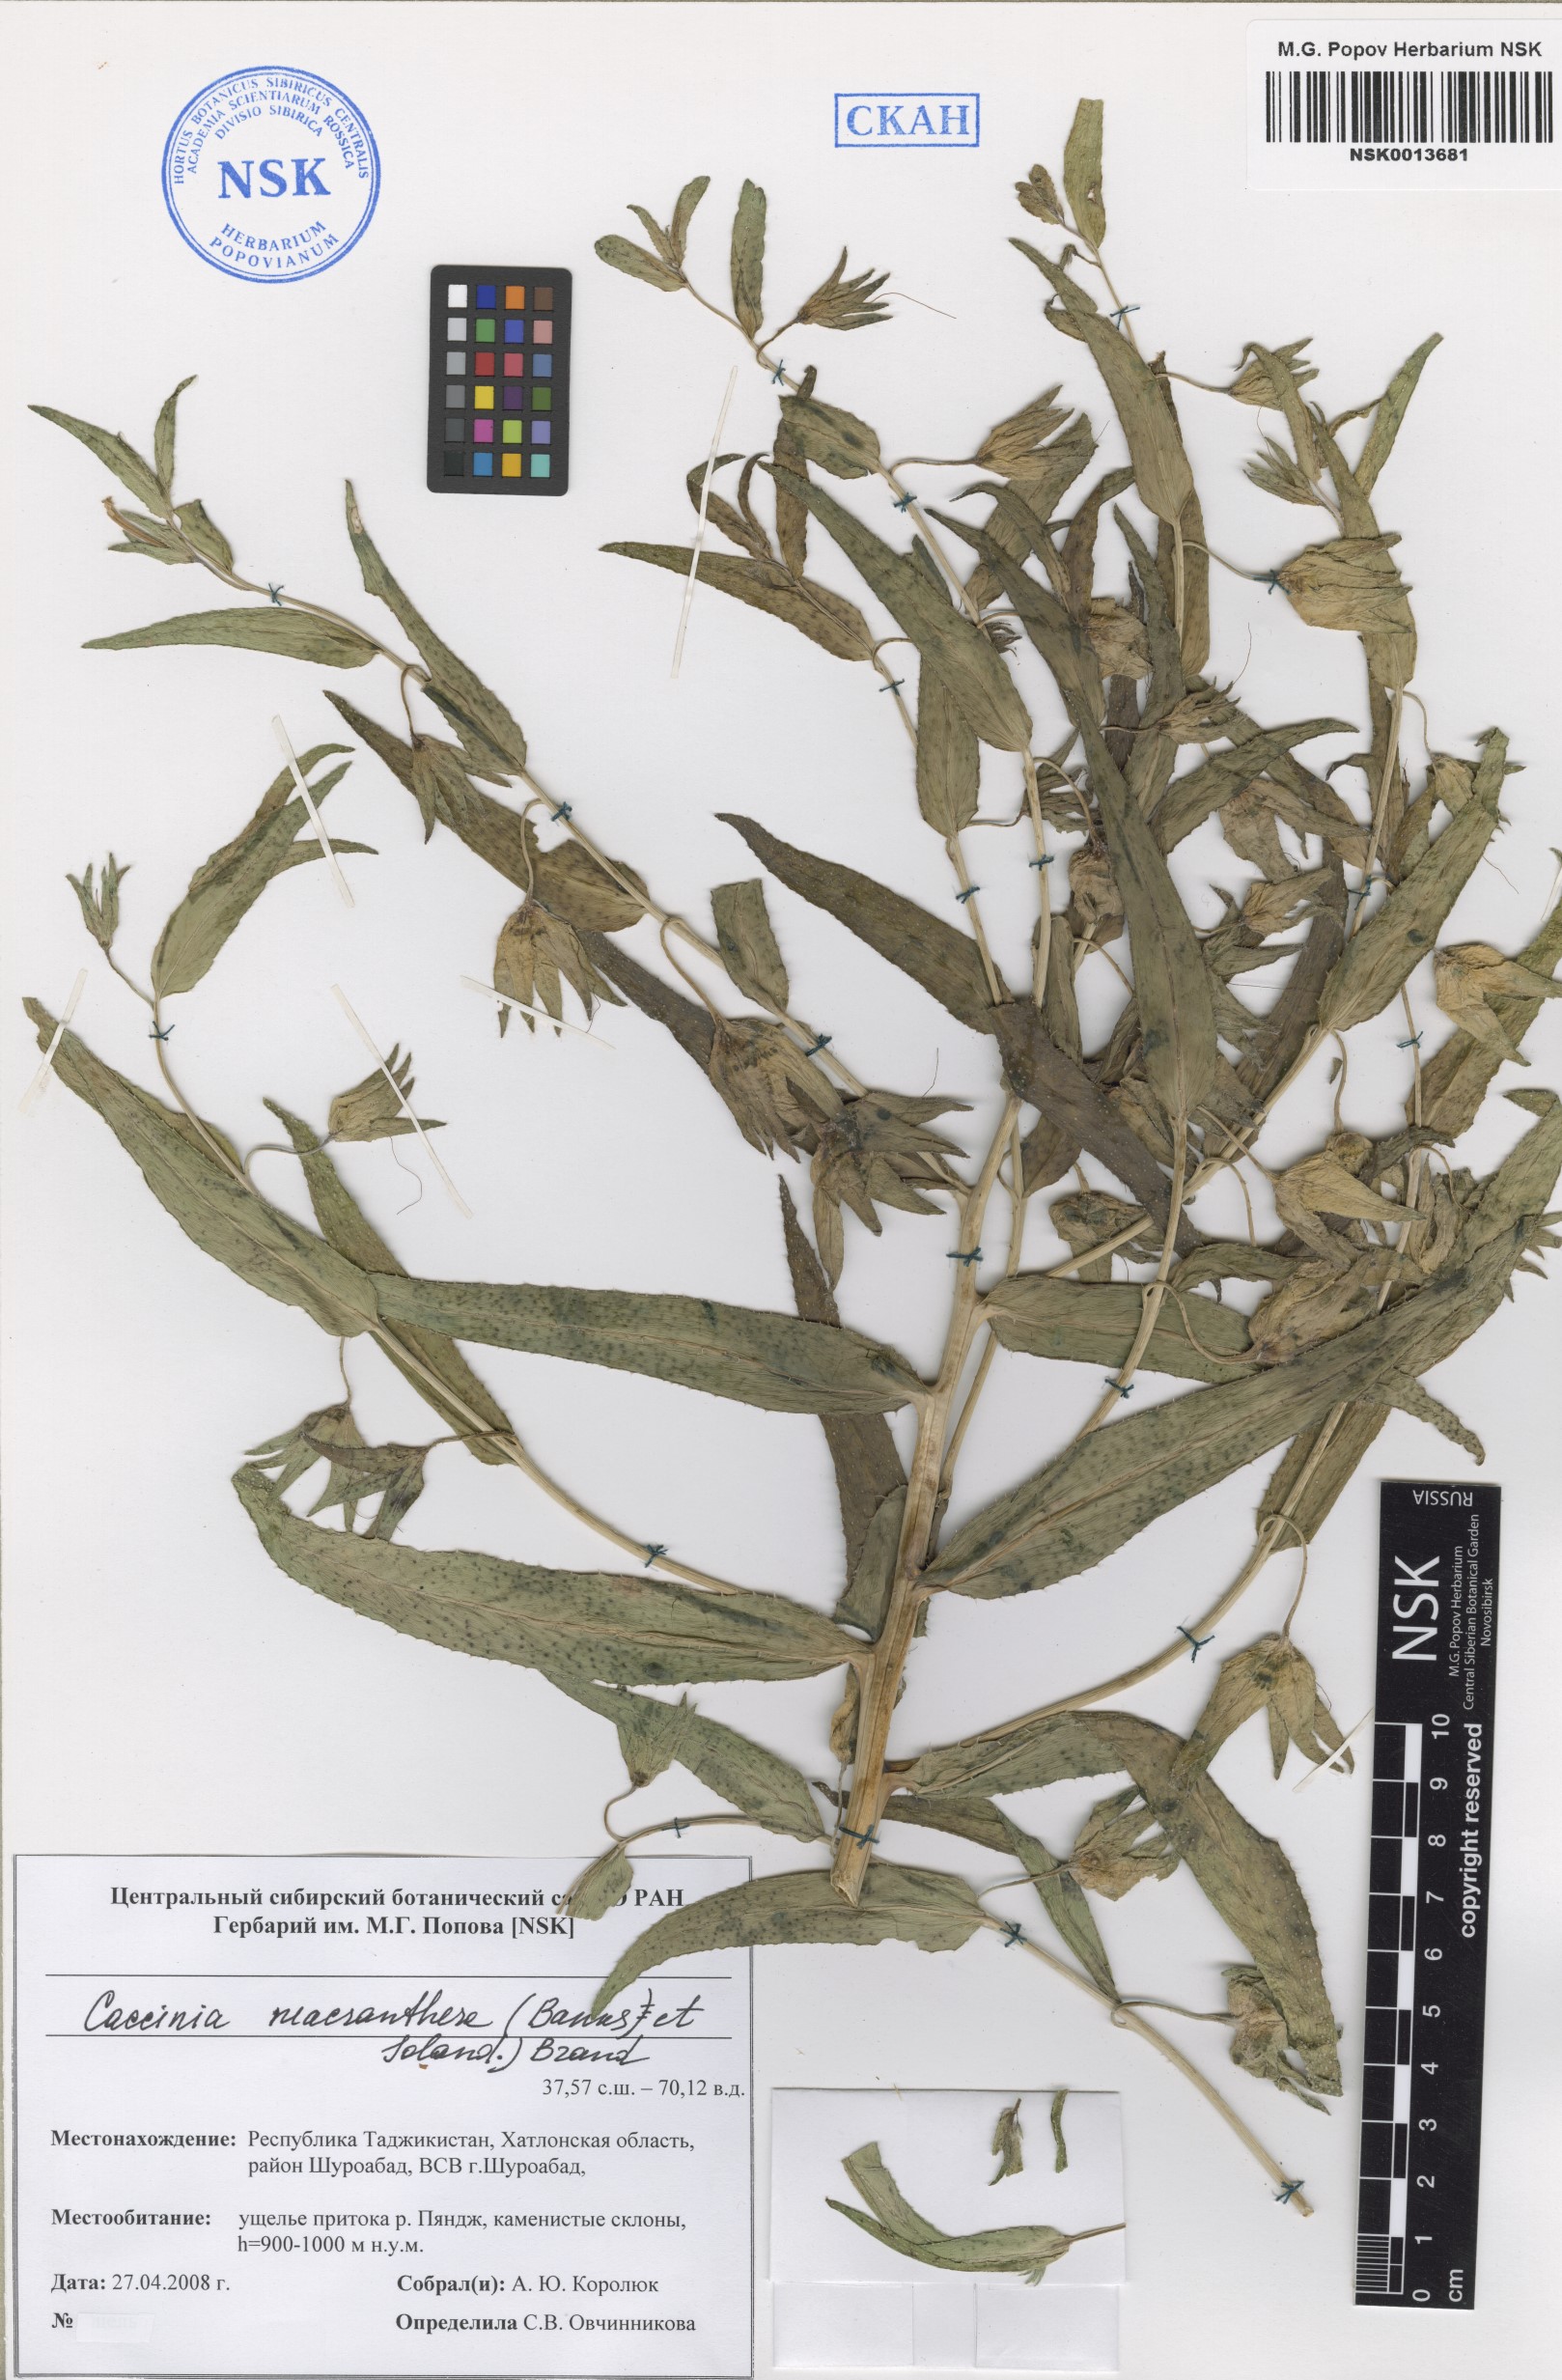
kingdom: Plantae
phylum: Tracheophyta
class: Magnoliopsida
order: Boraginales
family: Boraginaceae
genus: Caccinia
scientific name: Caccinia macranthera
